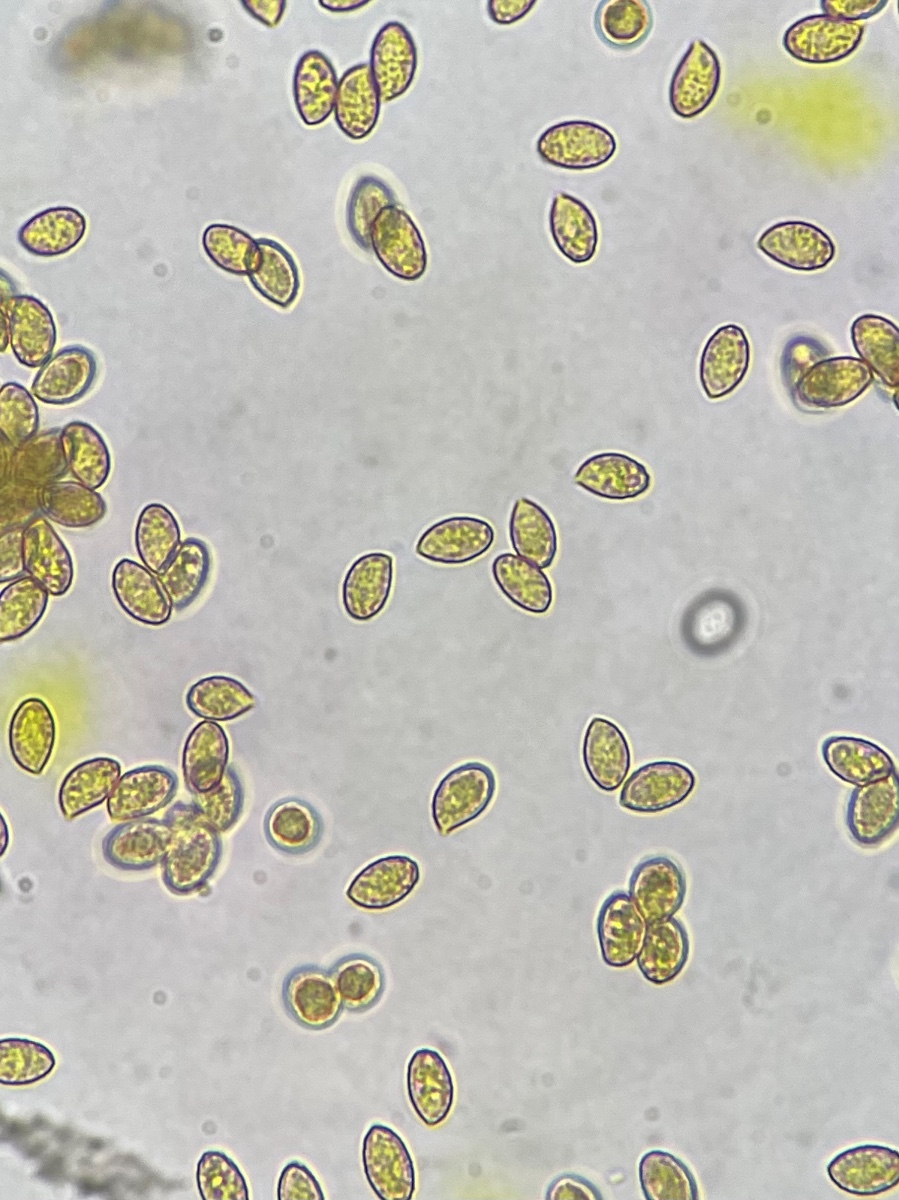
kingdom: Fungi
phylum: Basidiomycota
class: Agaricomycetes
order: Agaricales
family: Cortinariaceae
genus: Cortinarius
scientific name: Cortinarius uxorum
